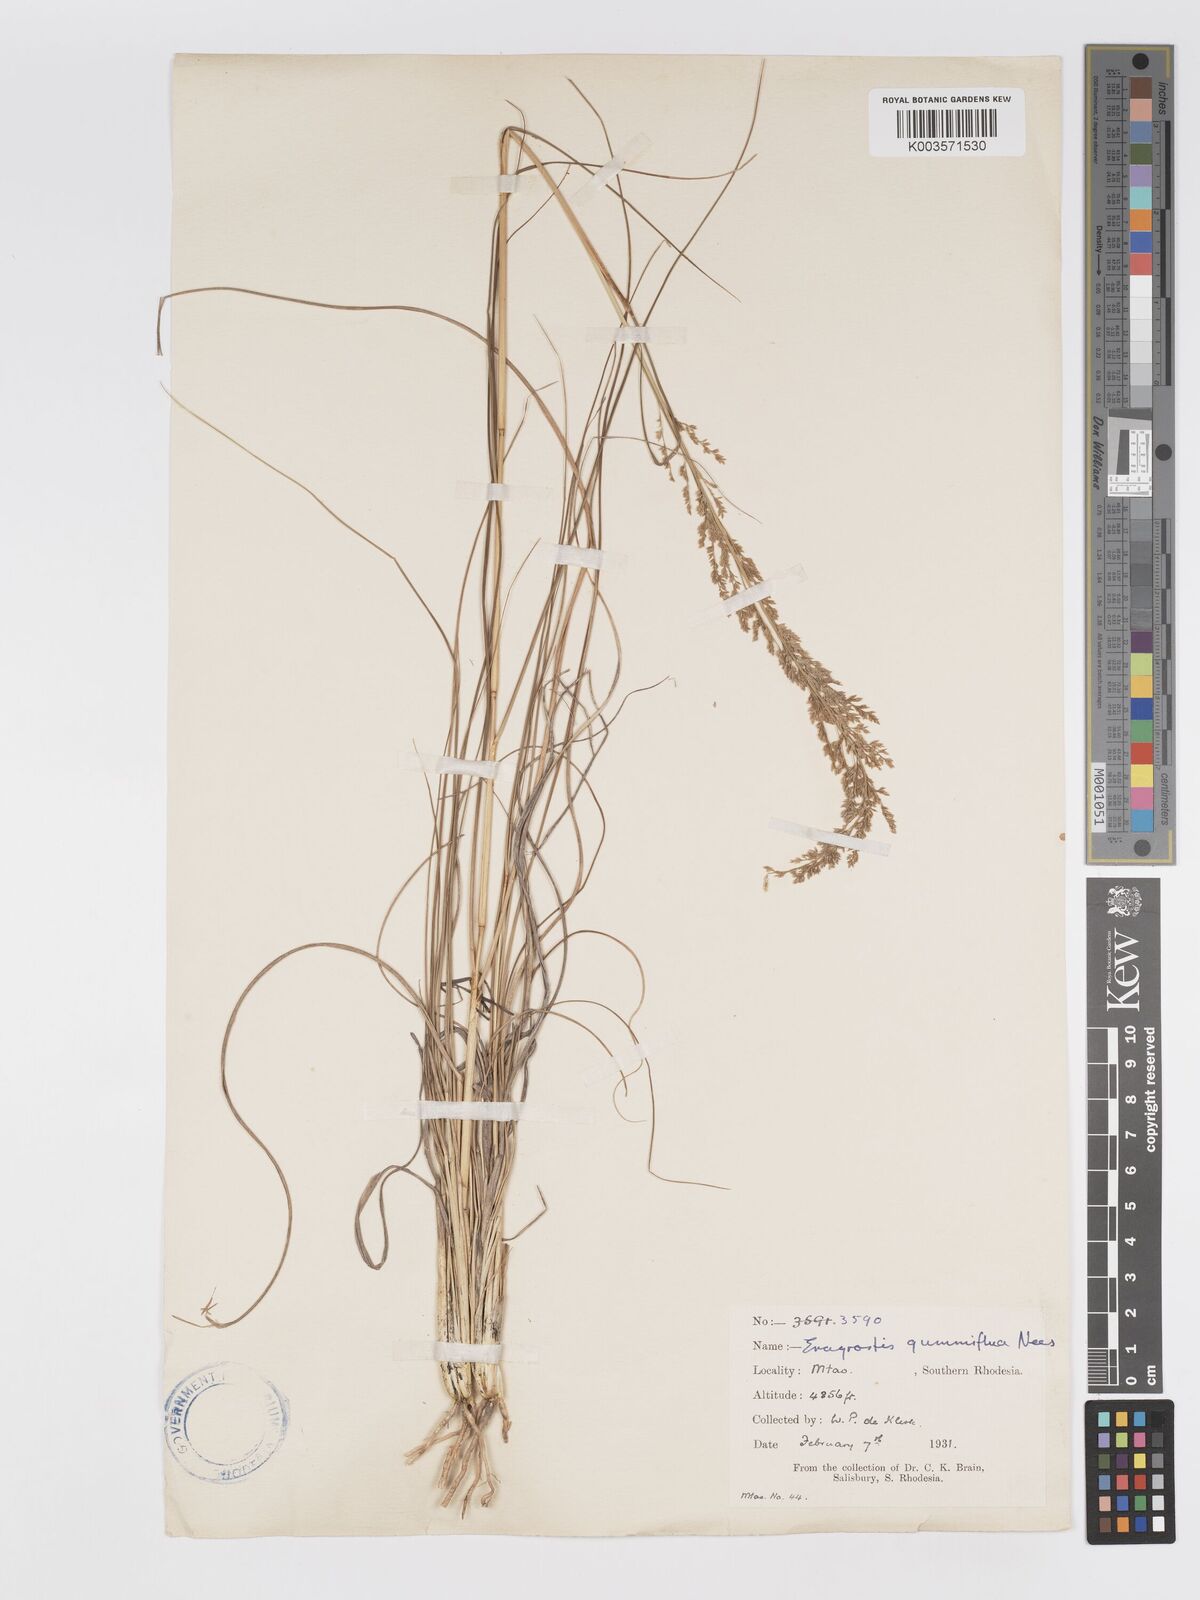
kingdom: Plantae
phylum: Tracheophyta
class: Liliopsida
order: Poales
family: Poaceae
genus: Eragrostis
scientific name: Eragrostis gummiflua
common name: Gum grass
